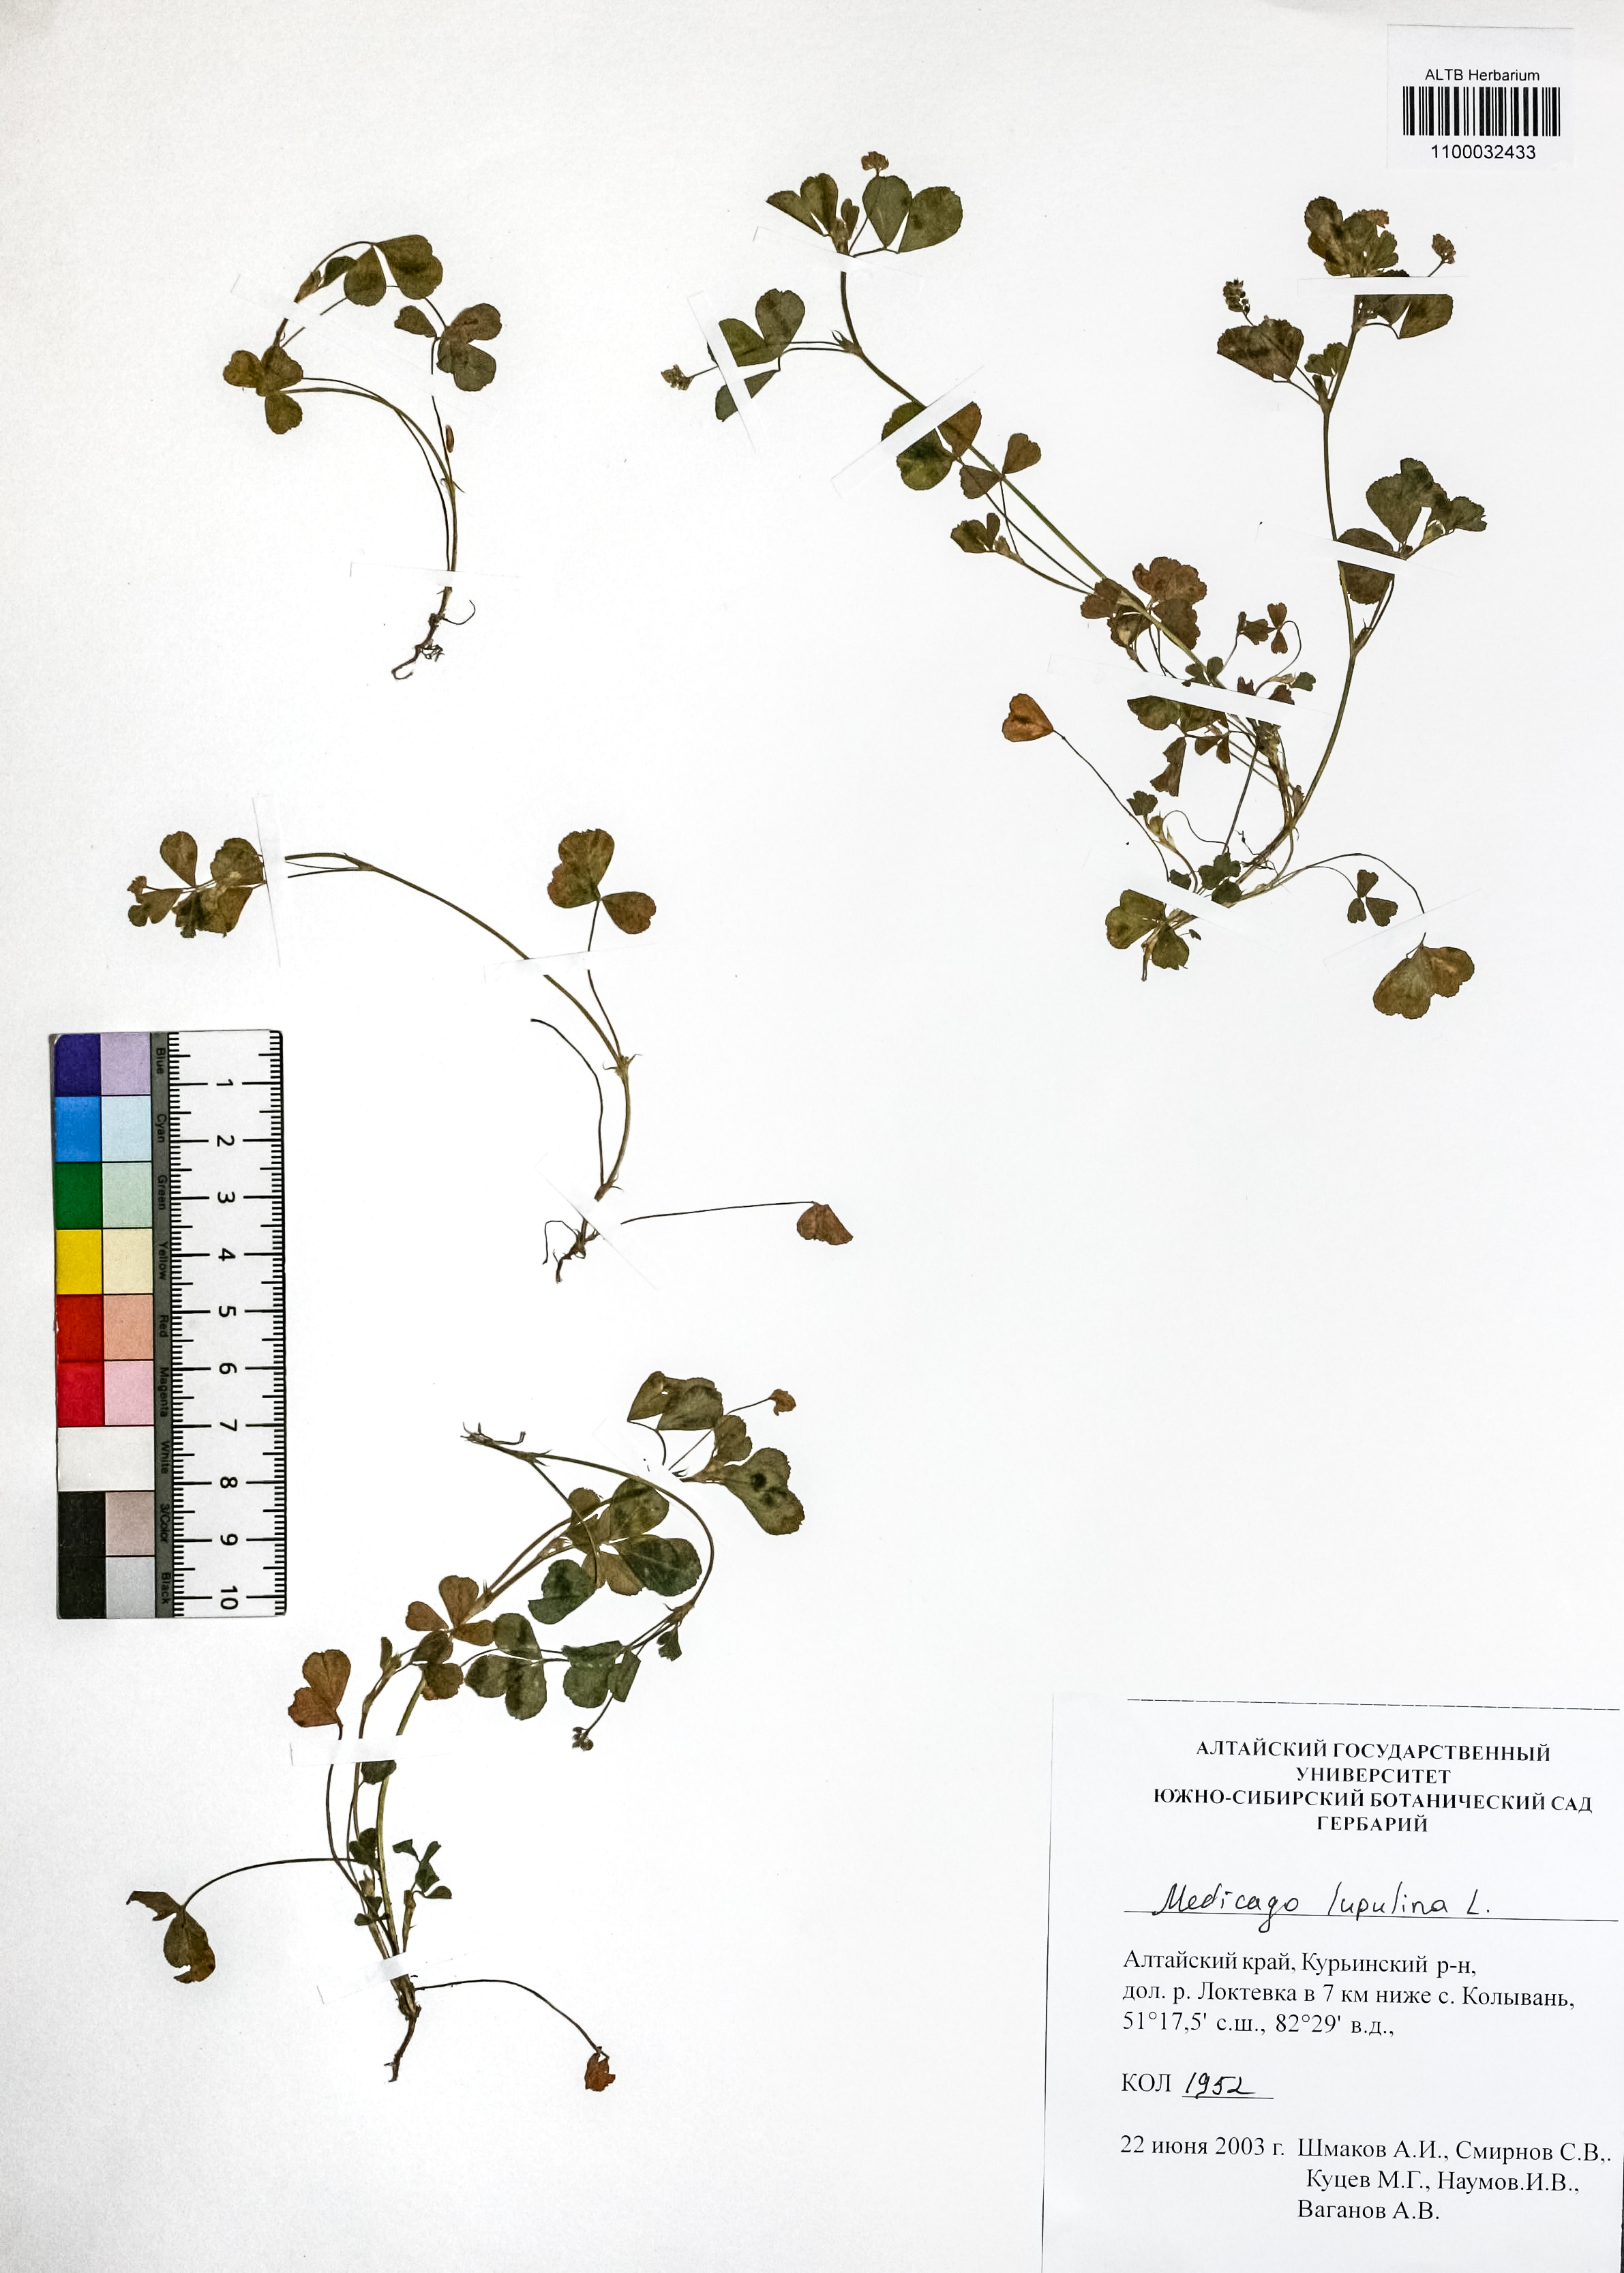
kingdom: Plantae
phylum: Tracheophyta
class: Magnoliopsida
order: Fabales
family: Fabaceae
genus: Medicago
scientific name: Medicago lupulina
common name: Black medick
